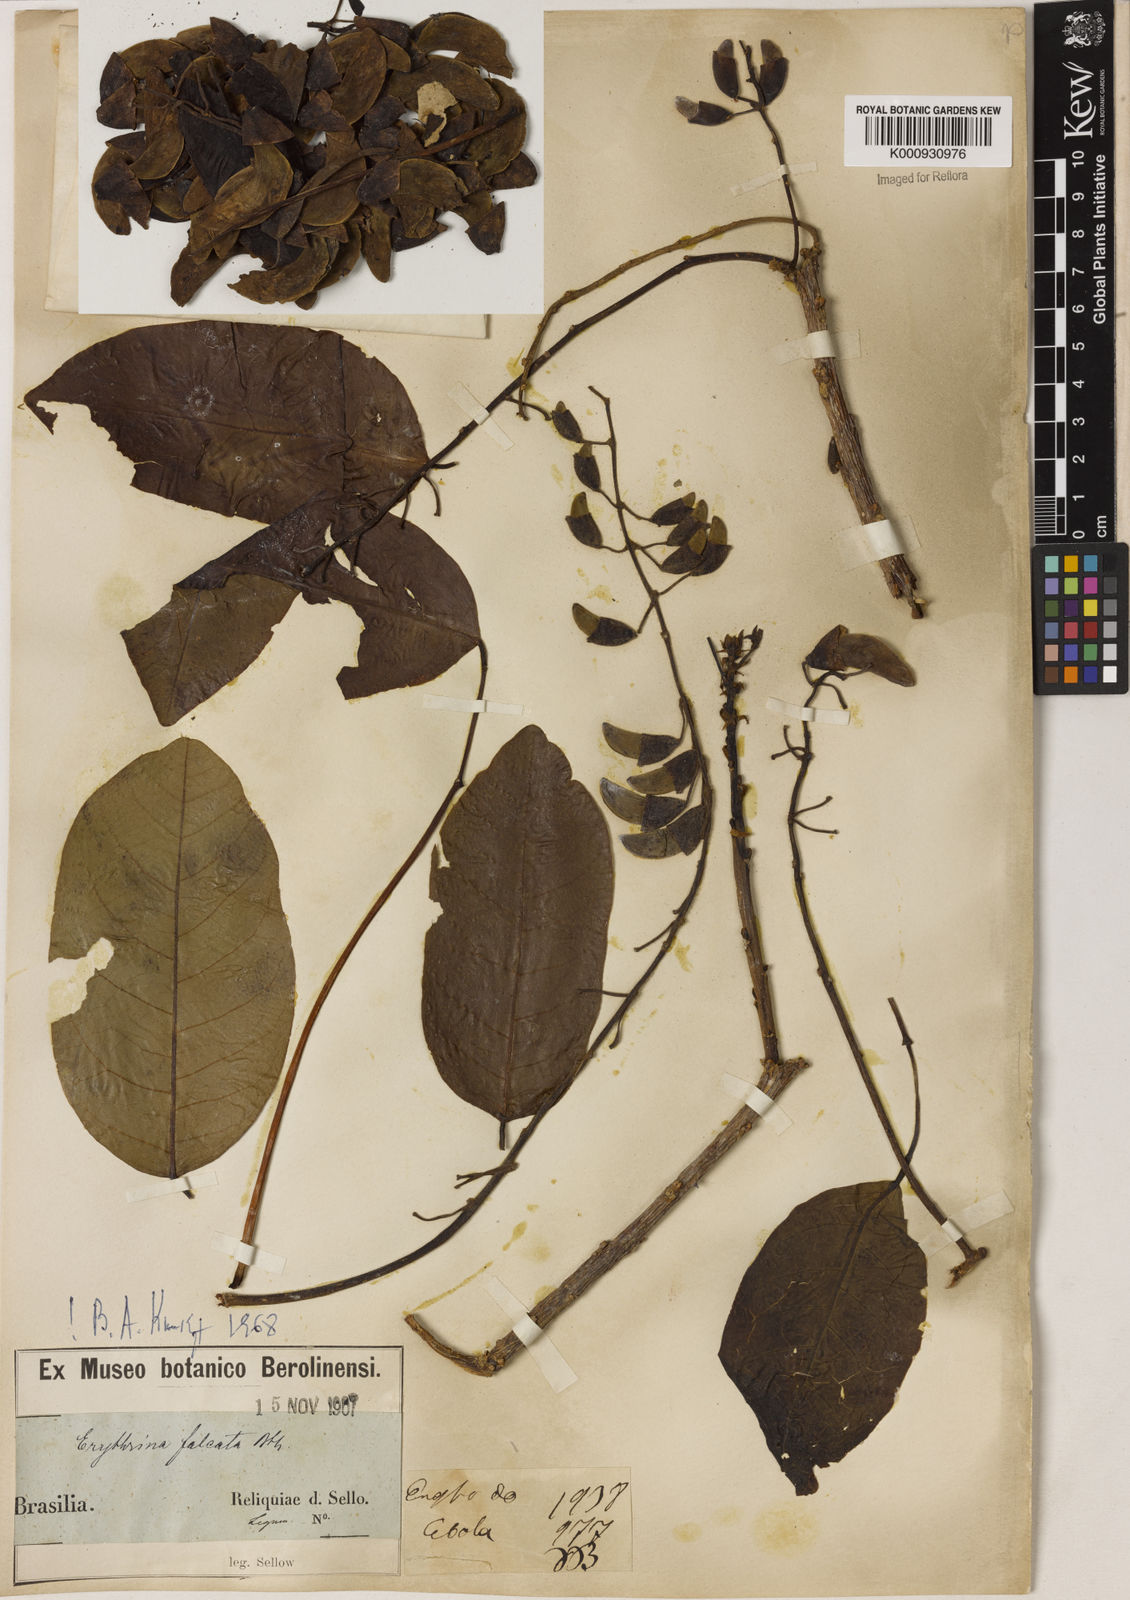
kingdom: Plantae
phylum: Tracheophyta
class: Magnoliopsida
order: Fabales
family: Fabaceae
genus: Erythrina
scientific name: Erythrina falcata
